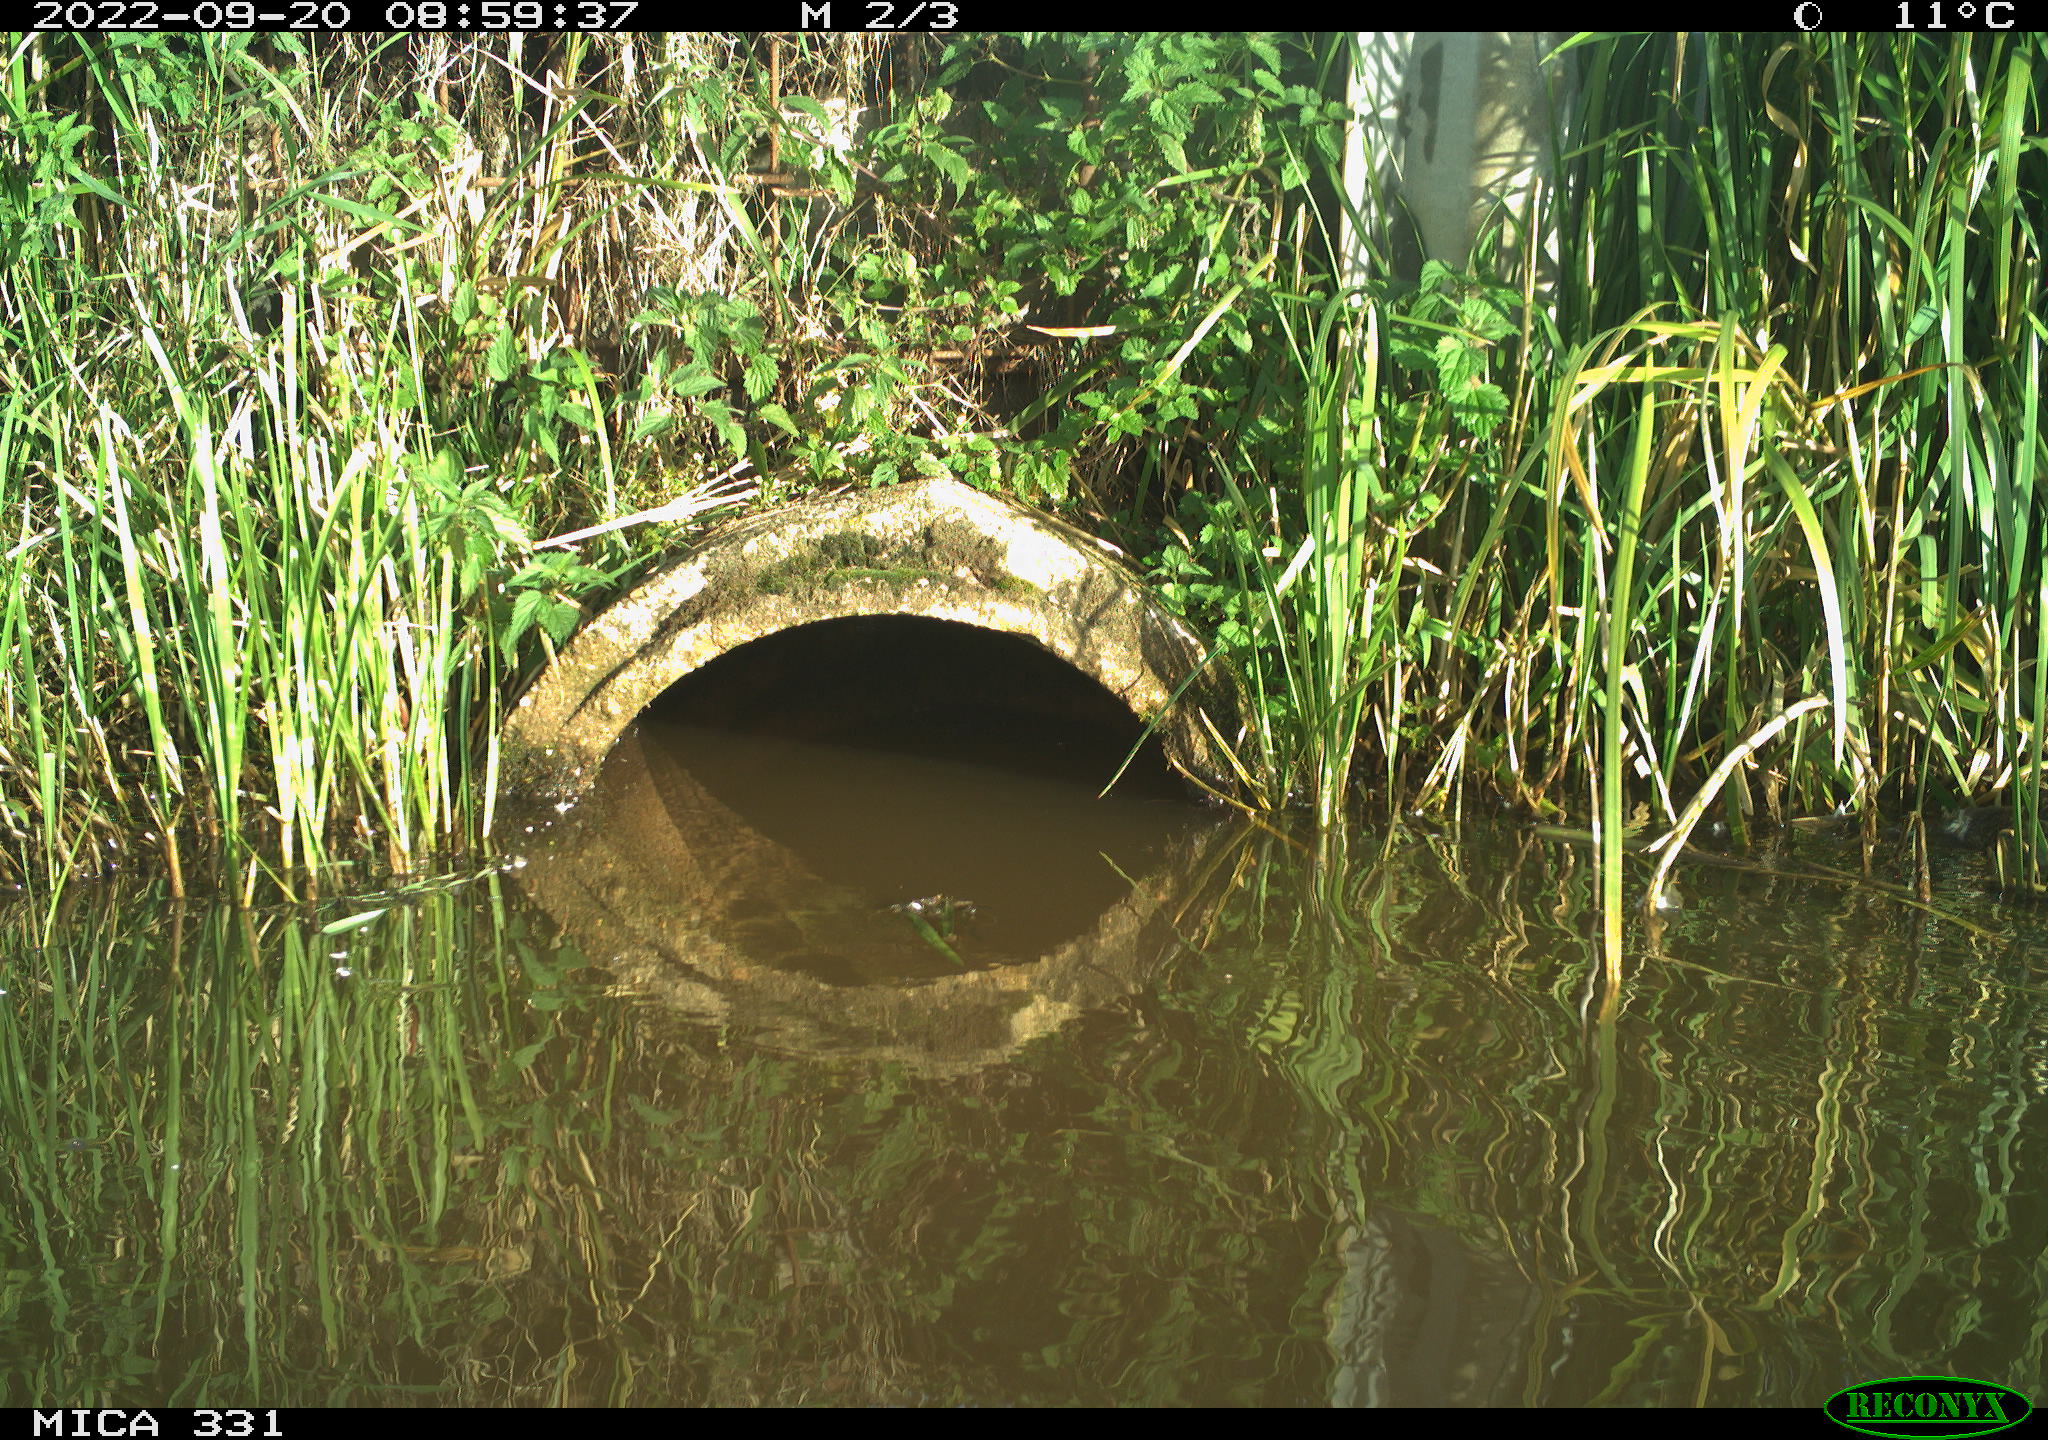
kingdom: Animalia
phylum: Chordata
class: Aves
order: Anseriformes
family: Anatidae
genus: Anas
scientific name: Anas platyrhynchos
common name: Mallard
